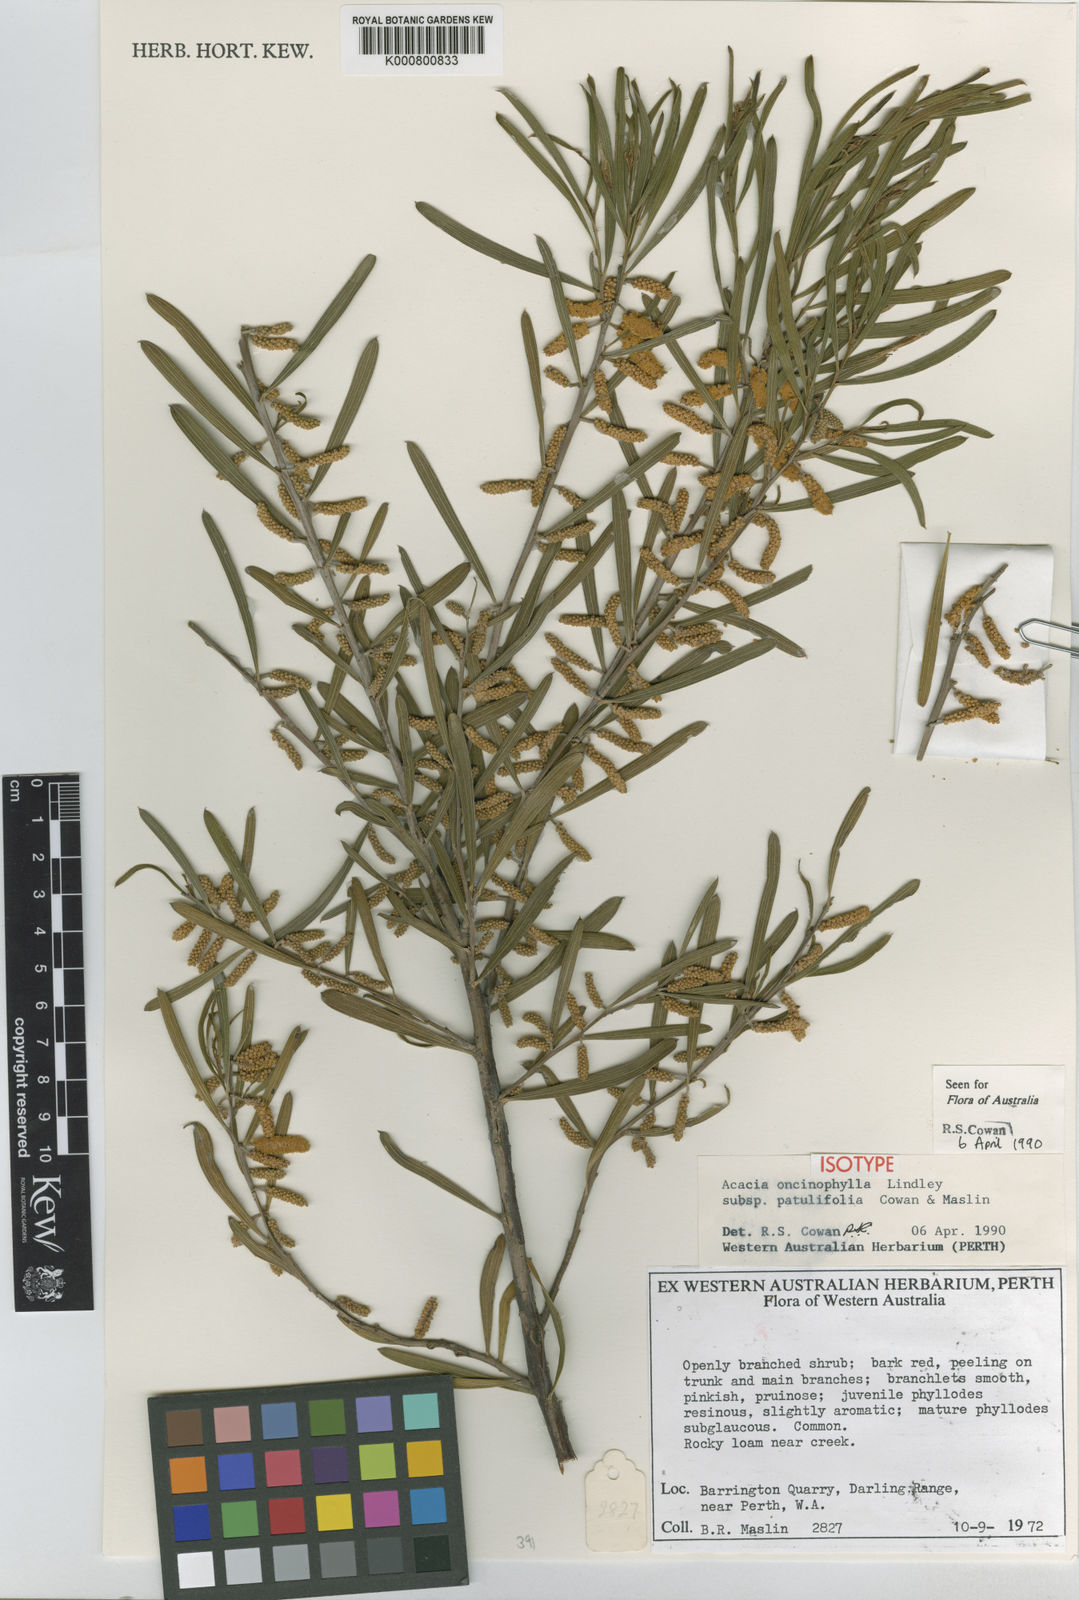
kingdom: Plantae
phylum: Tracheophyta
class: Magnoliopsida
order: Fabales
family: Fabaceae
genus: Acacia
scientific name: Acacia oncinophylla
